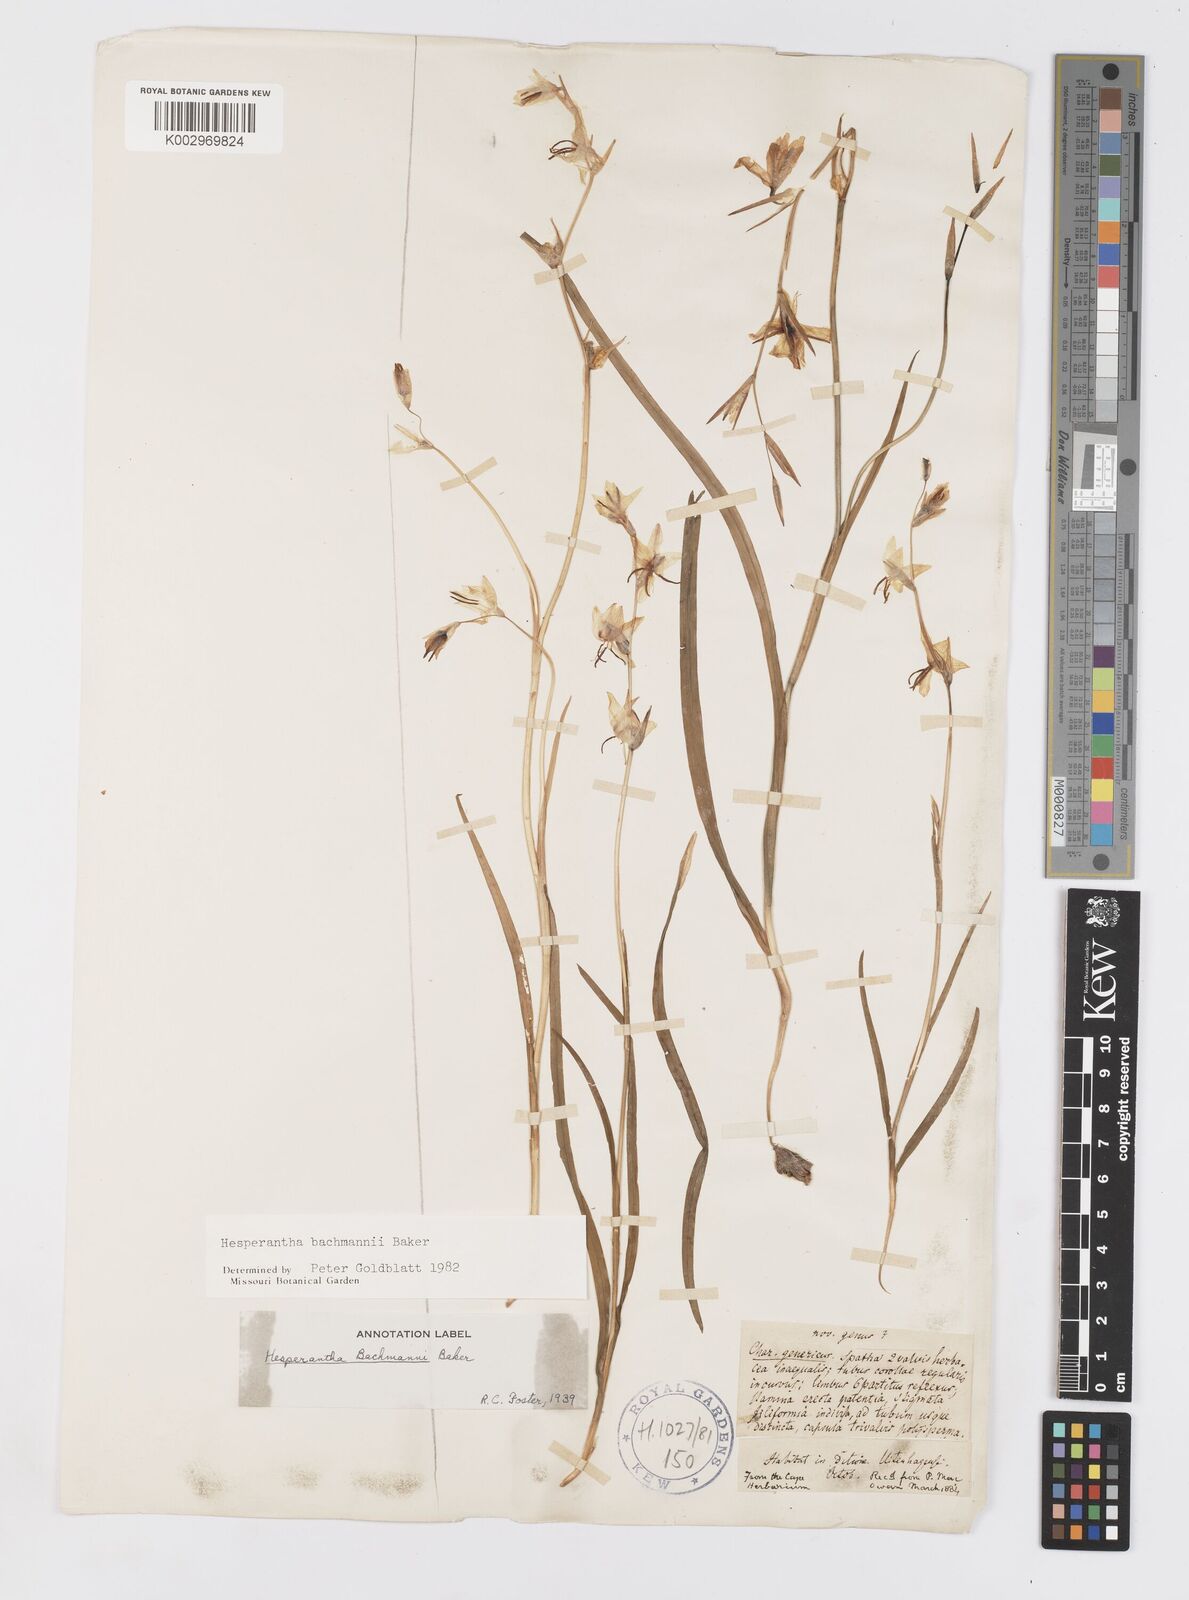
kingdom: Plantae
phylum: Tracheophyta
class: Liliopsida
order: Asparagales
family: Iridaceae
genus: Hesperantha
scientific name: Hesperantha bachmannii
